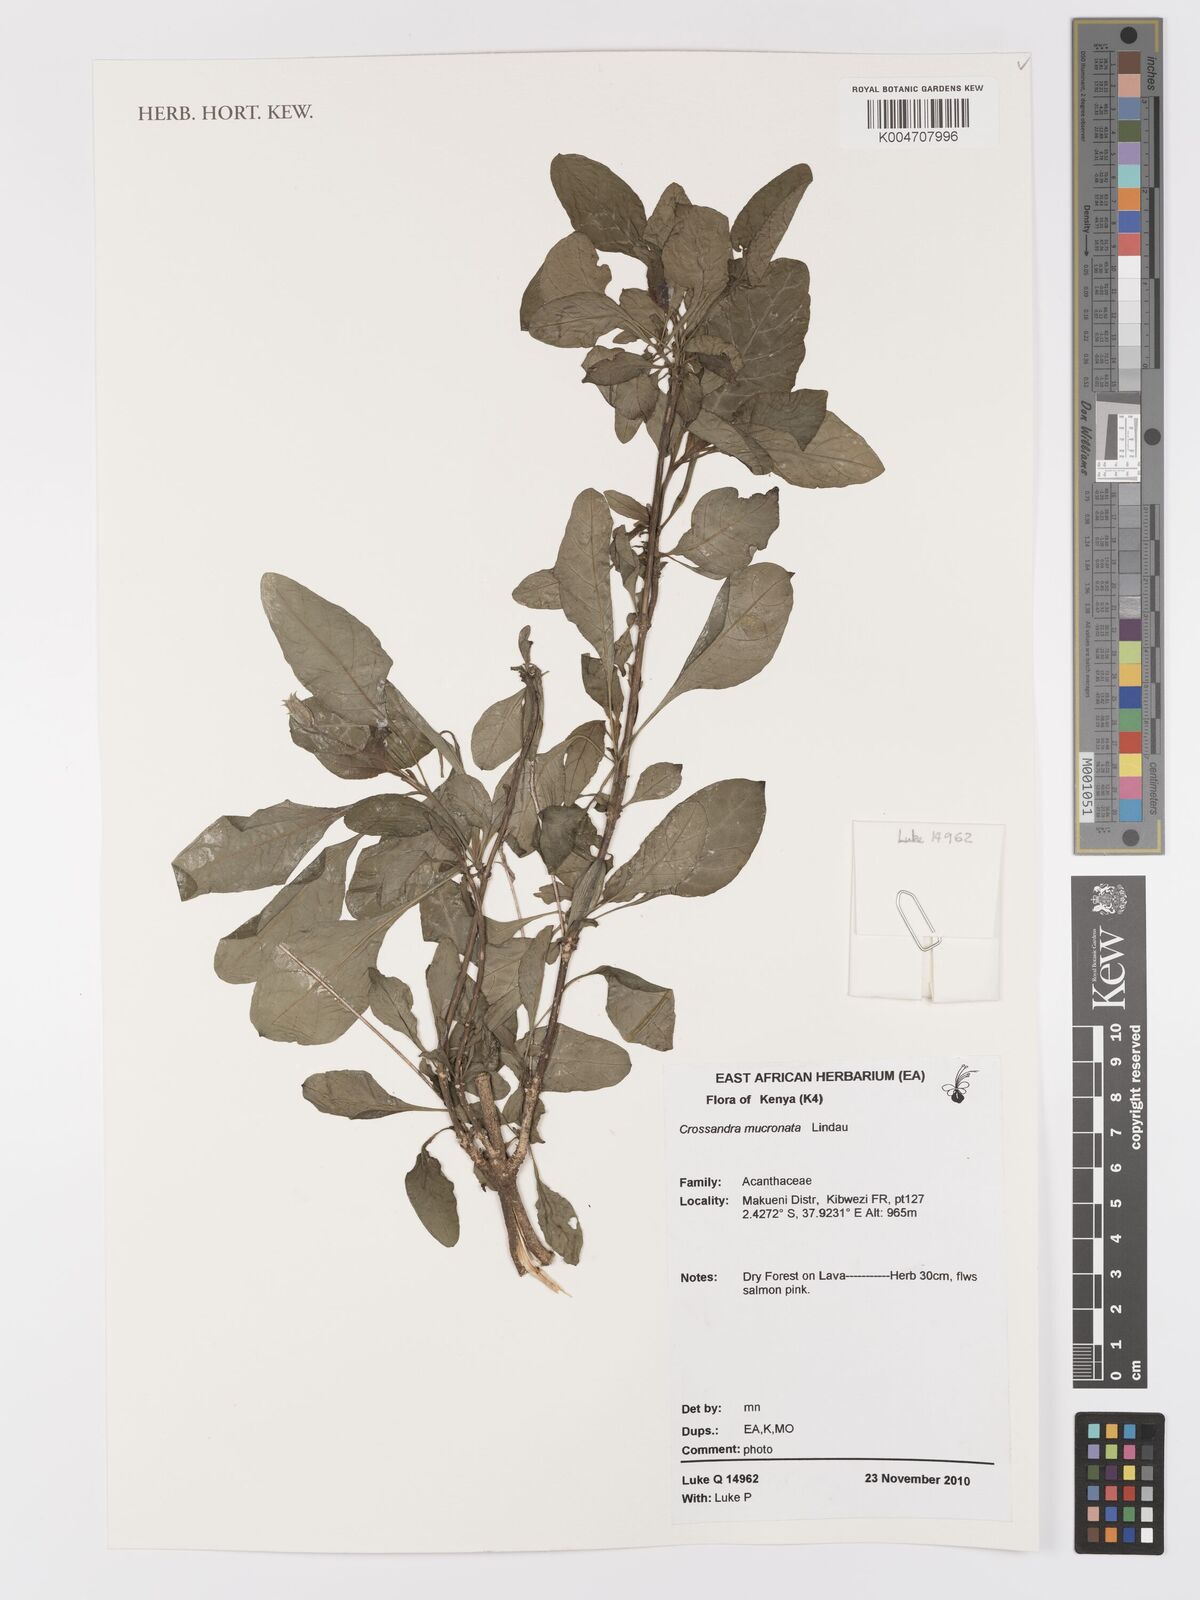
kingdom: Plantae
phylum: Tracheophyta
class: Magnoliopsida
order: Lamiales
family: Acanthaceae
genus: Crossandra
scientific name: Crossandra mucronata
